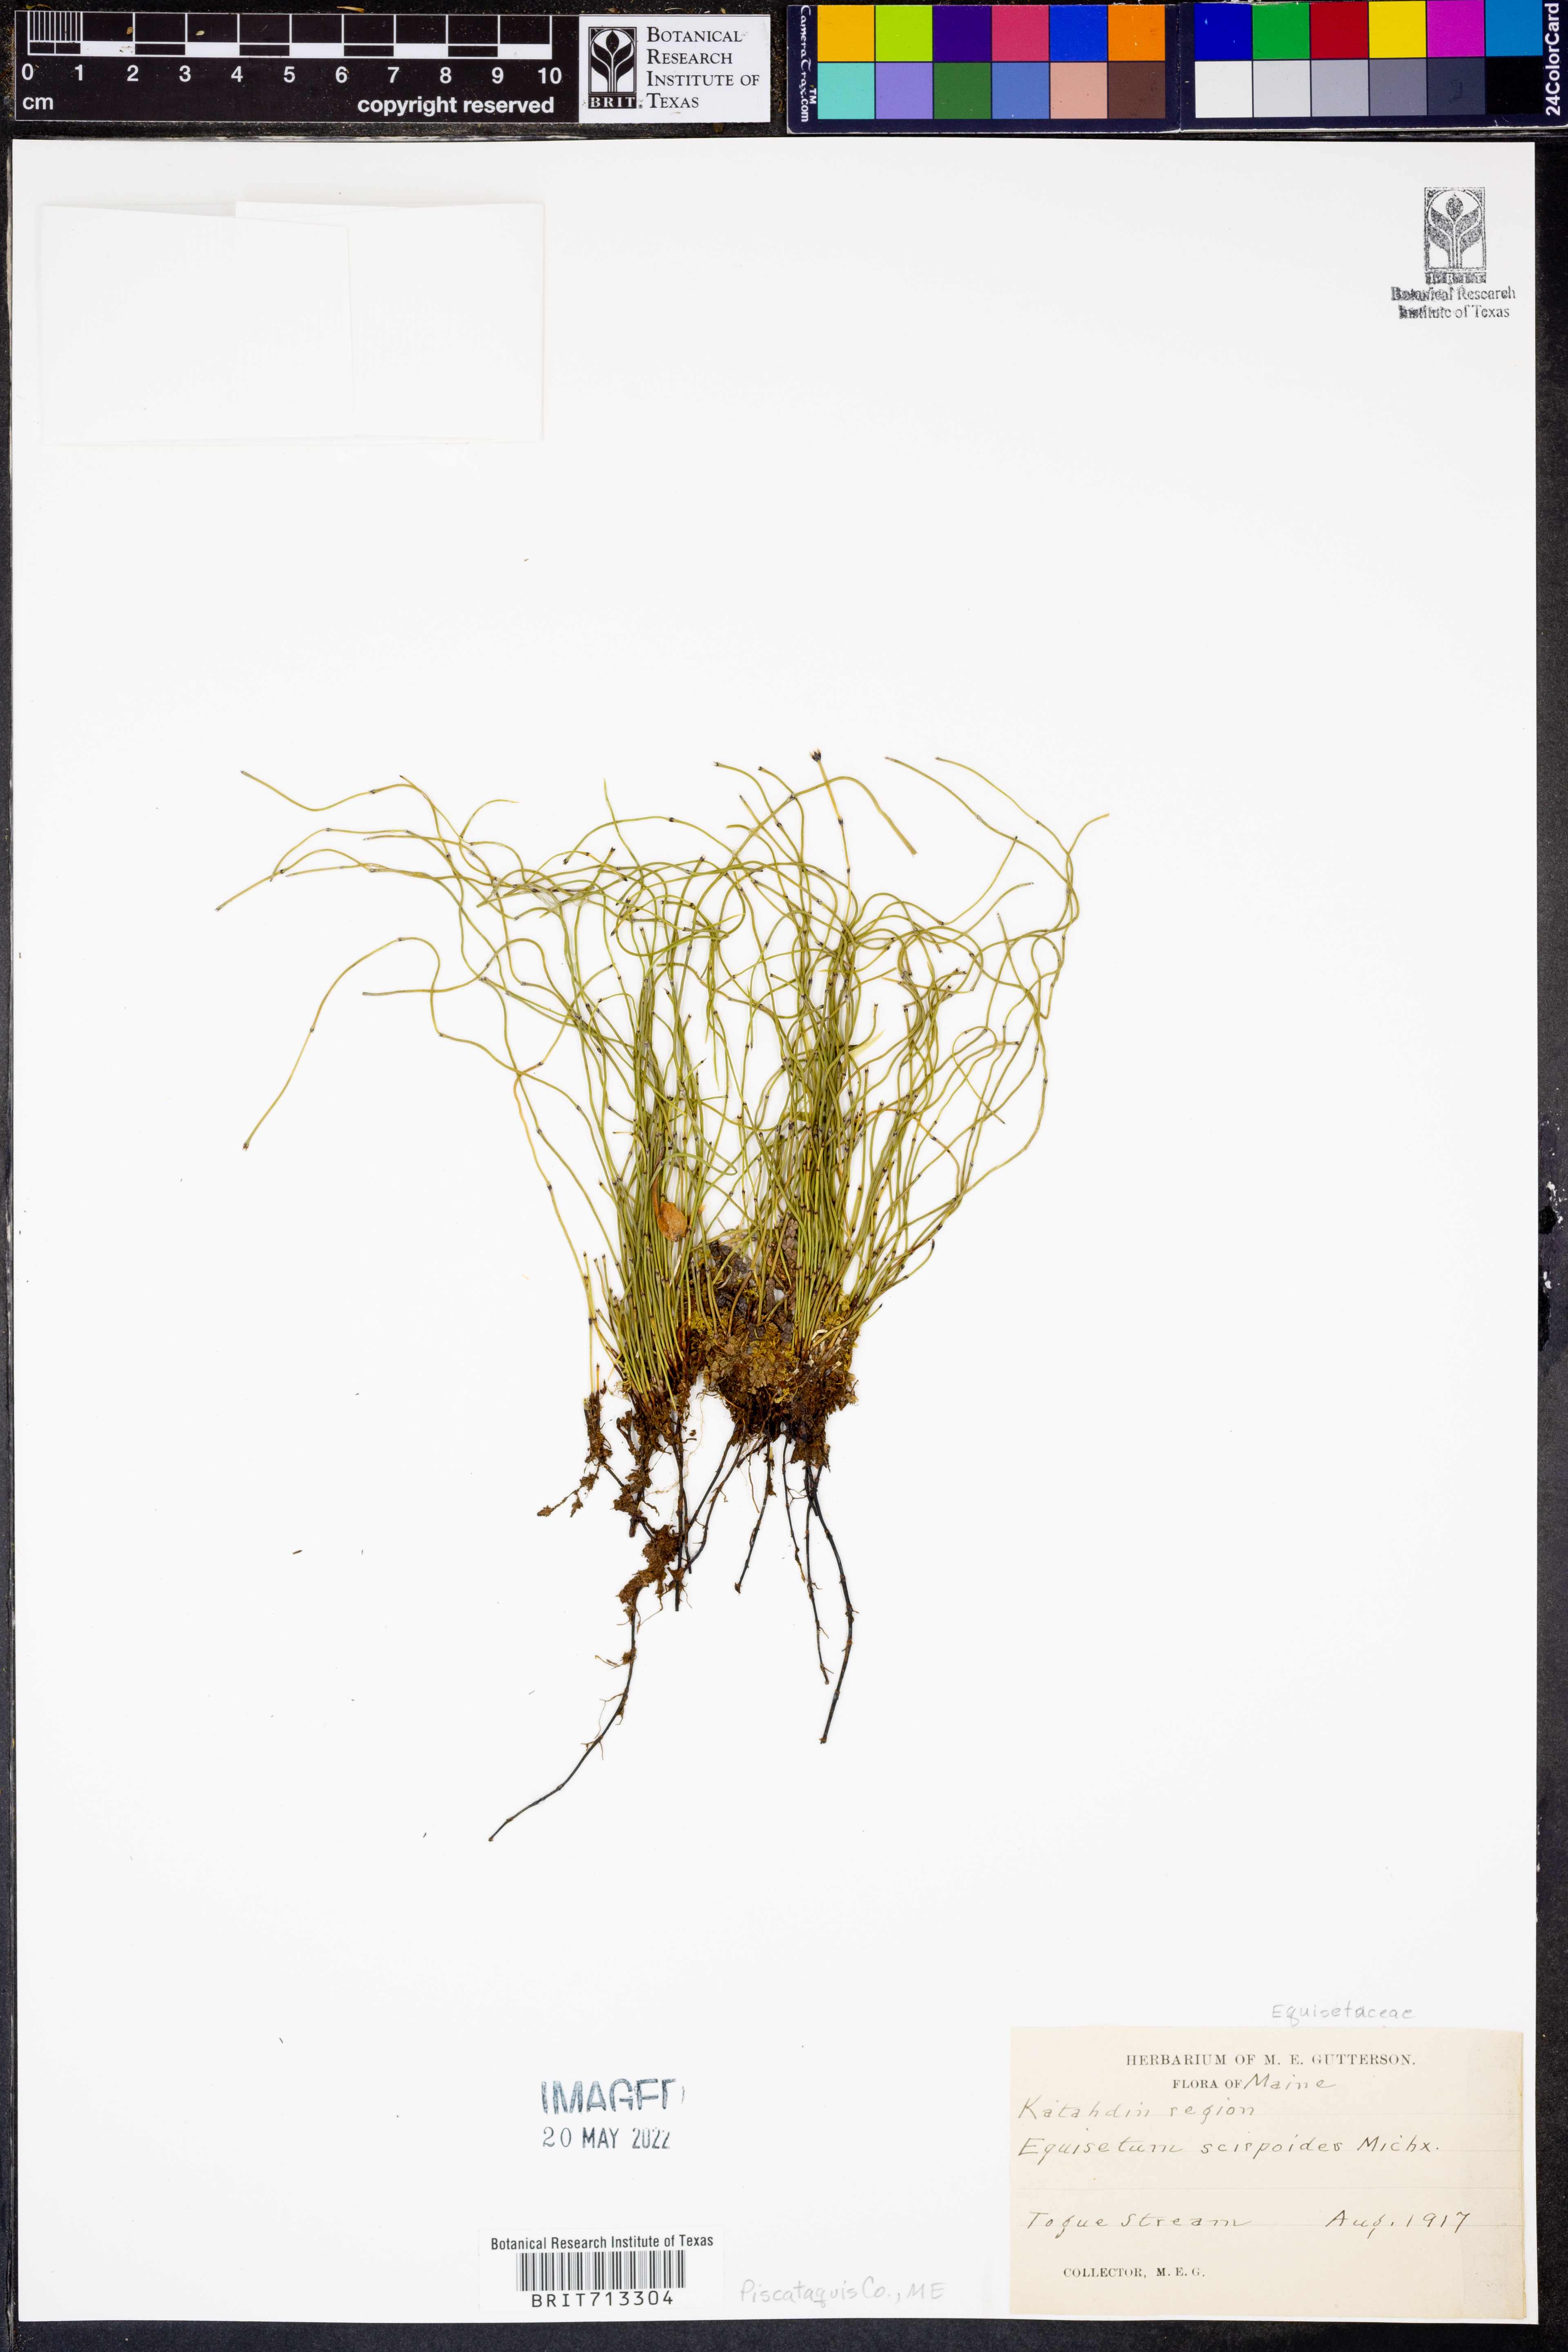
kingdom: Plantae
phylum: Tracheophyta
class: Polypodiopsida
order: Equisetales
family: Equisetaceae
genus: Equisetum
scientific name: Equisetum scirpoides
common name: Delicate horsetail
